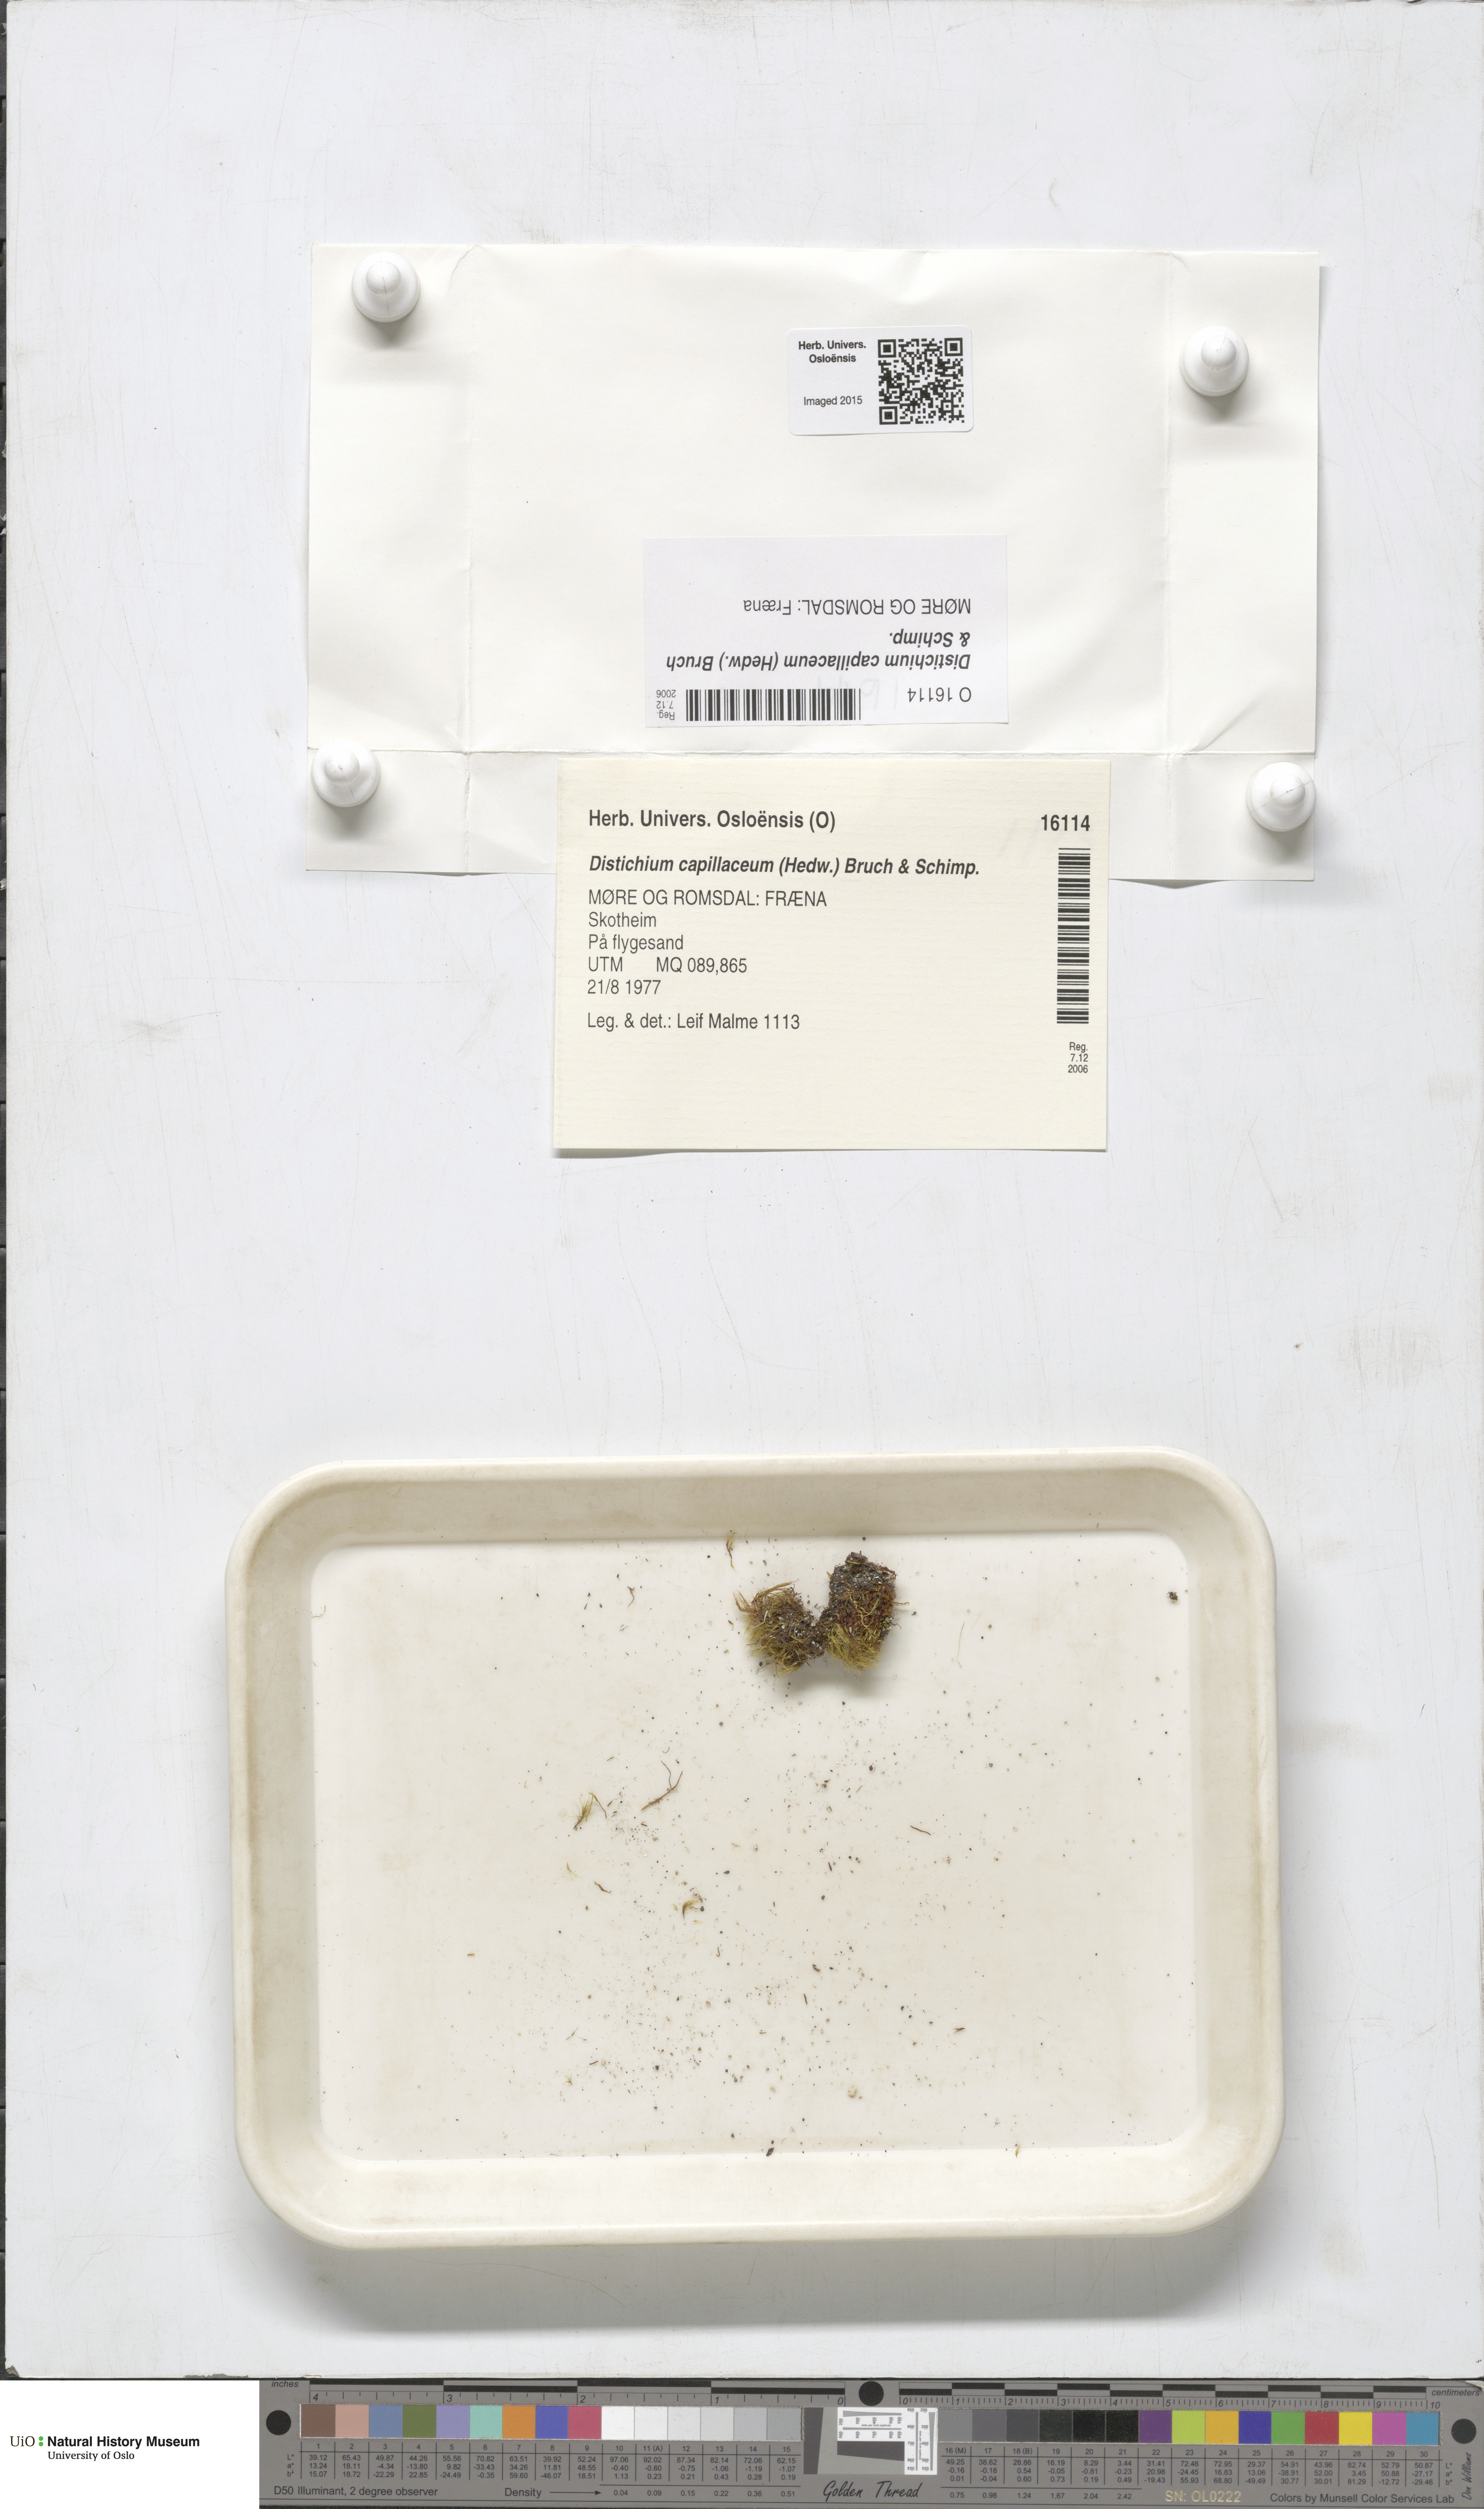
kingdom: Plantae
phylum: Bryophyta
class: Bryopsida
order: Scouleriales
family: Distichiaceae
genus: Distichium
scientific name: Distichium capillaceum
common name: Erect-fruited iris moss
